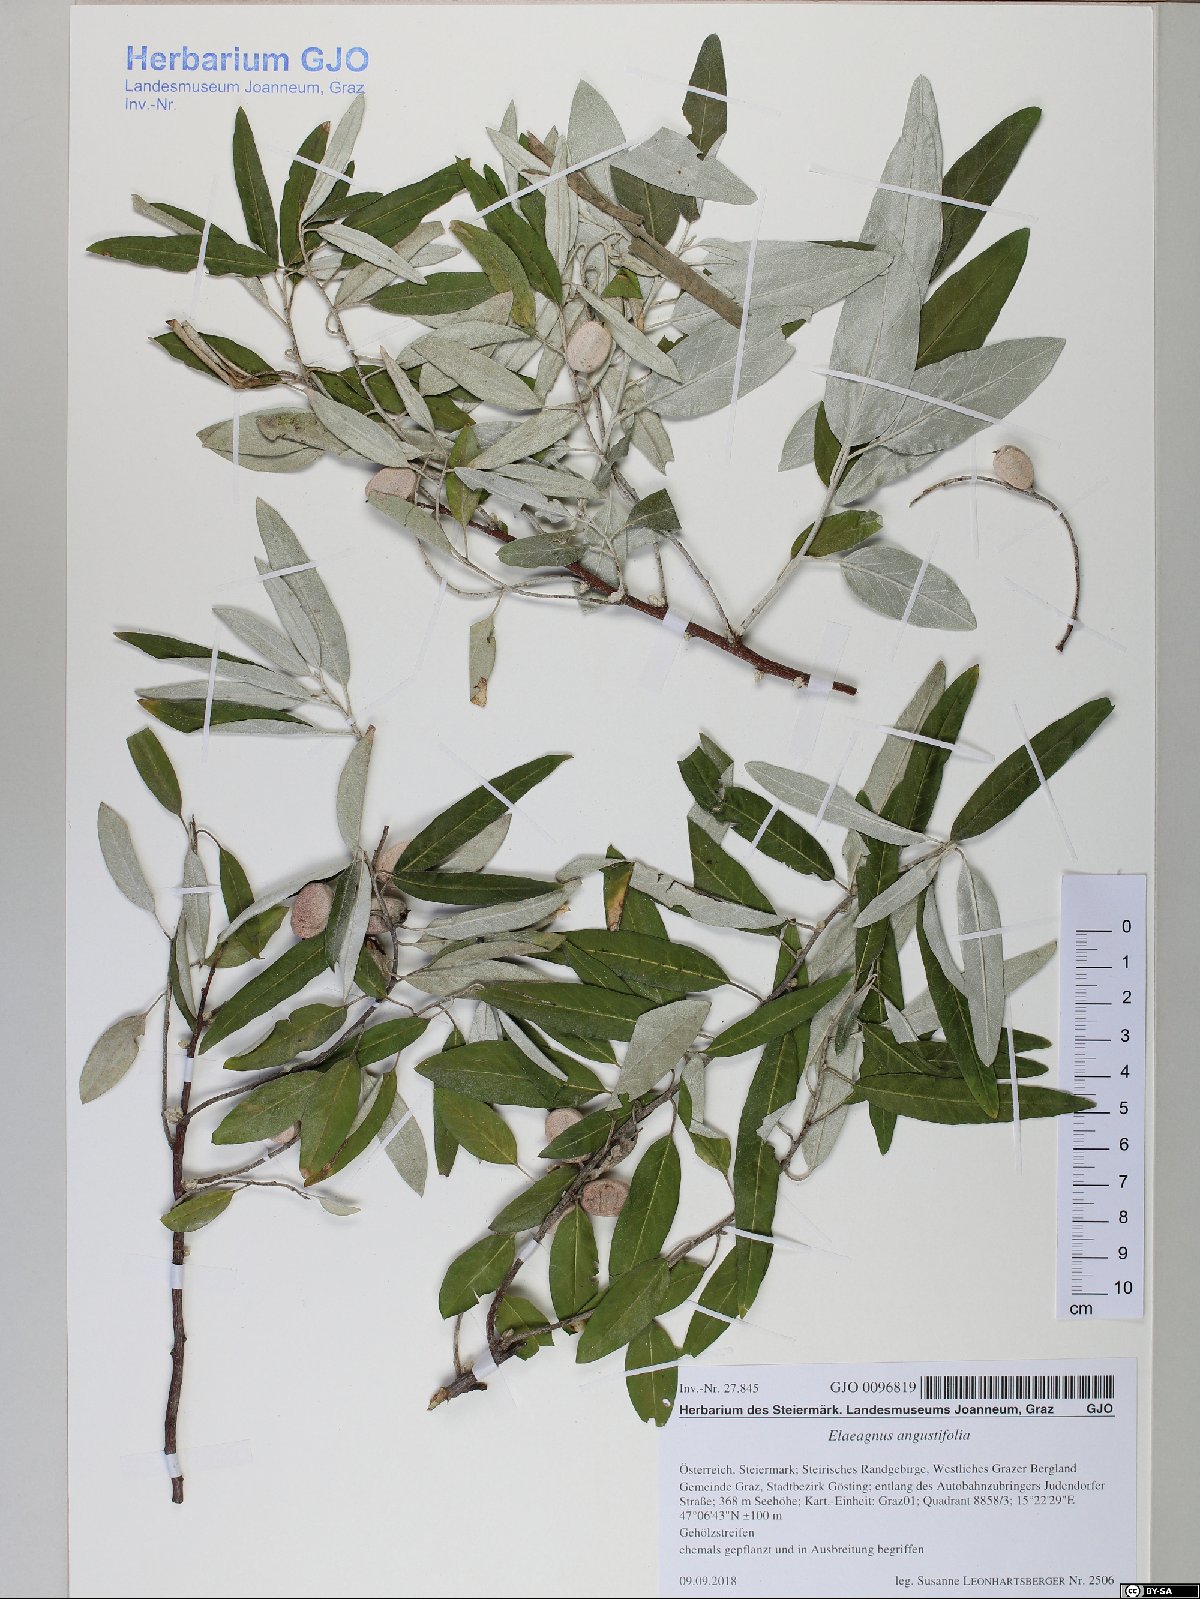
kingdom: Plantae
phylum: Tracheophyta
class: Magnoliopsida
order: Rosales
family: Elaeagnaceae
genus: Elaeagnus
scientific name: Elaeagnus angustifolia
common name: Russian olive
